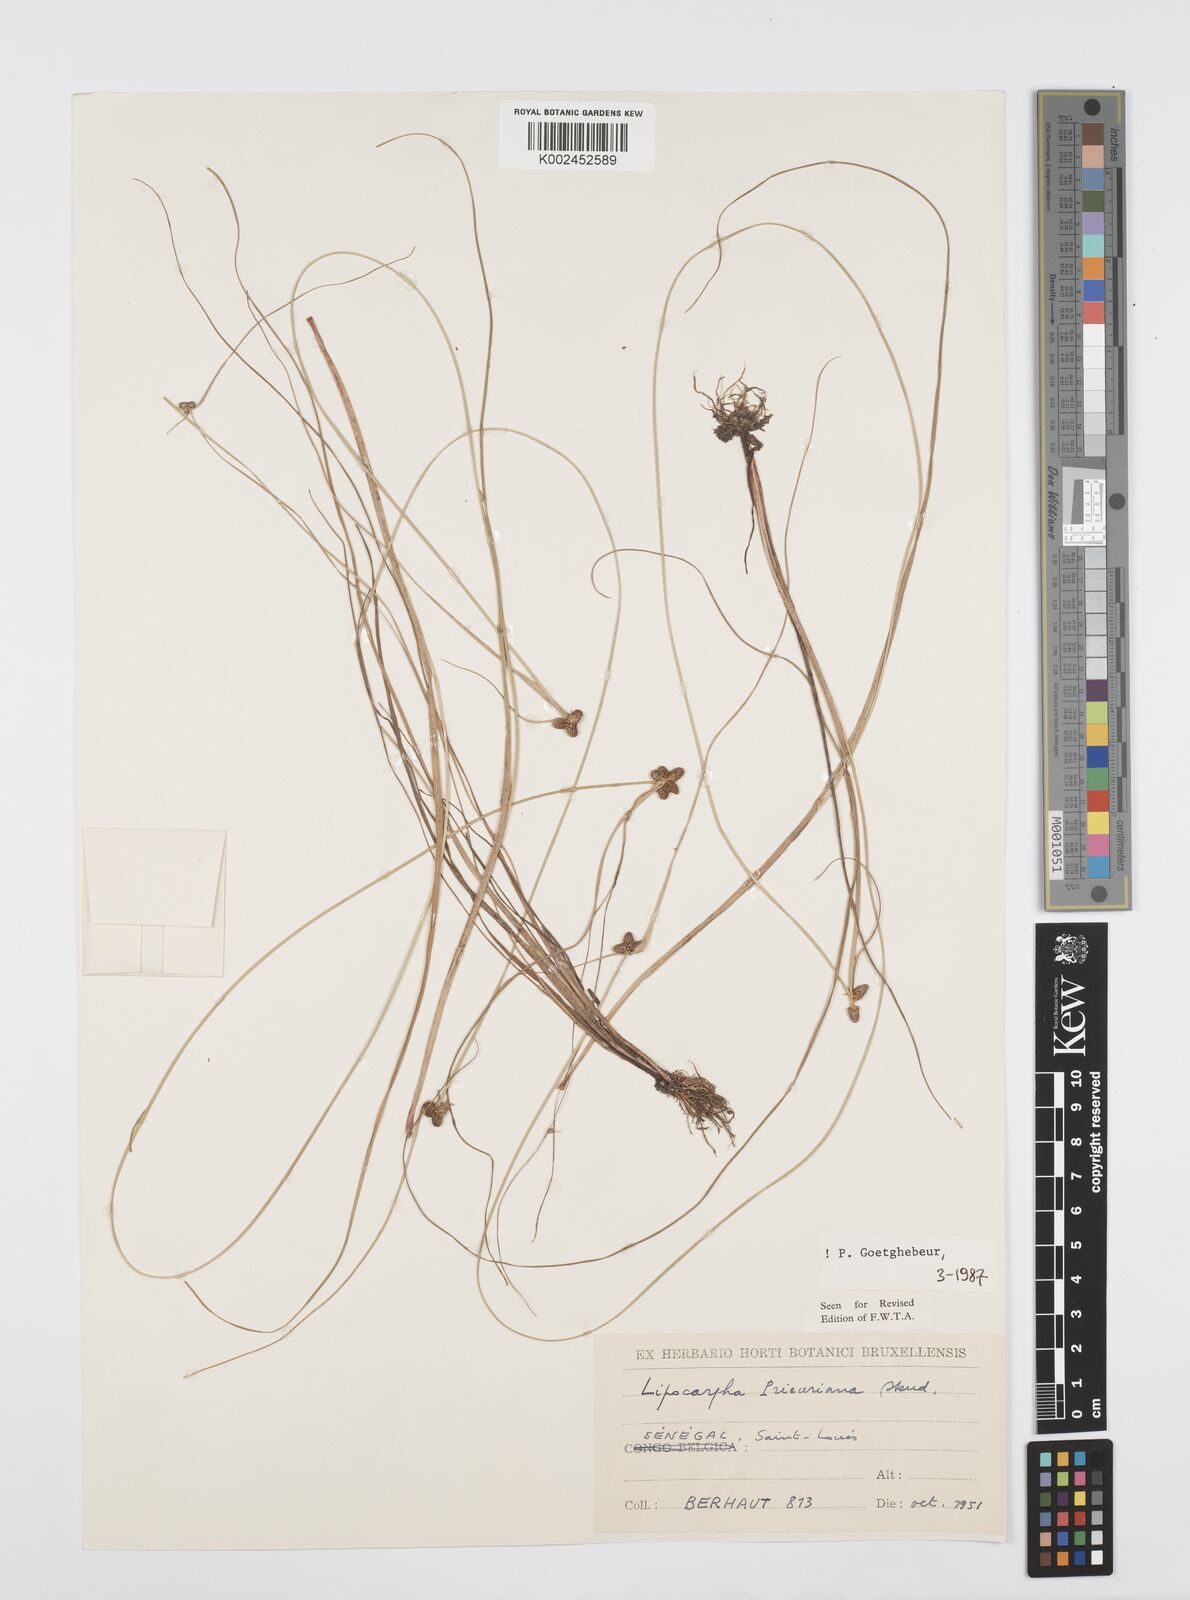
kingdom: Plantae
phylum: Tracheophyta
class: Liliopsida
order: Poales
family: Cyperaceae
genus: Cyperus
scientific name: Cyperus prieurianus
